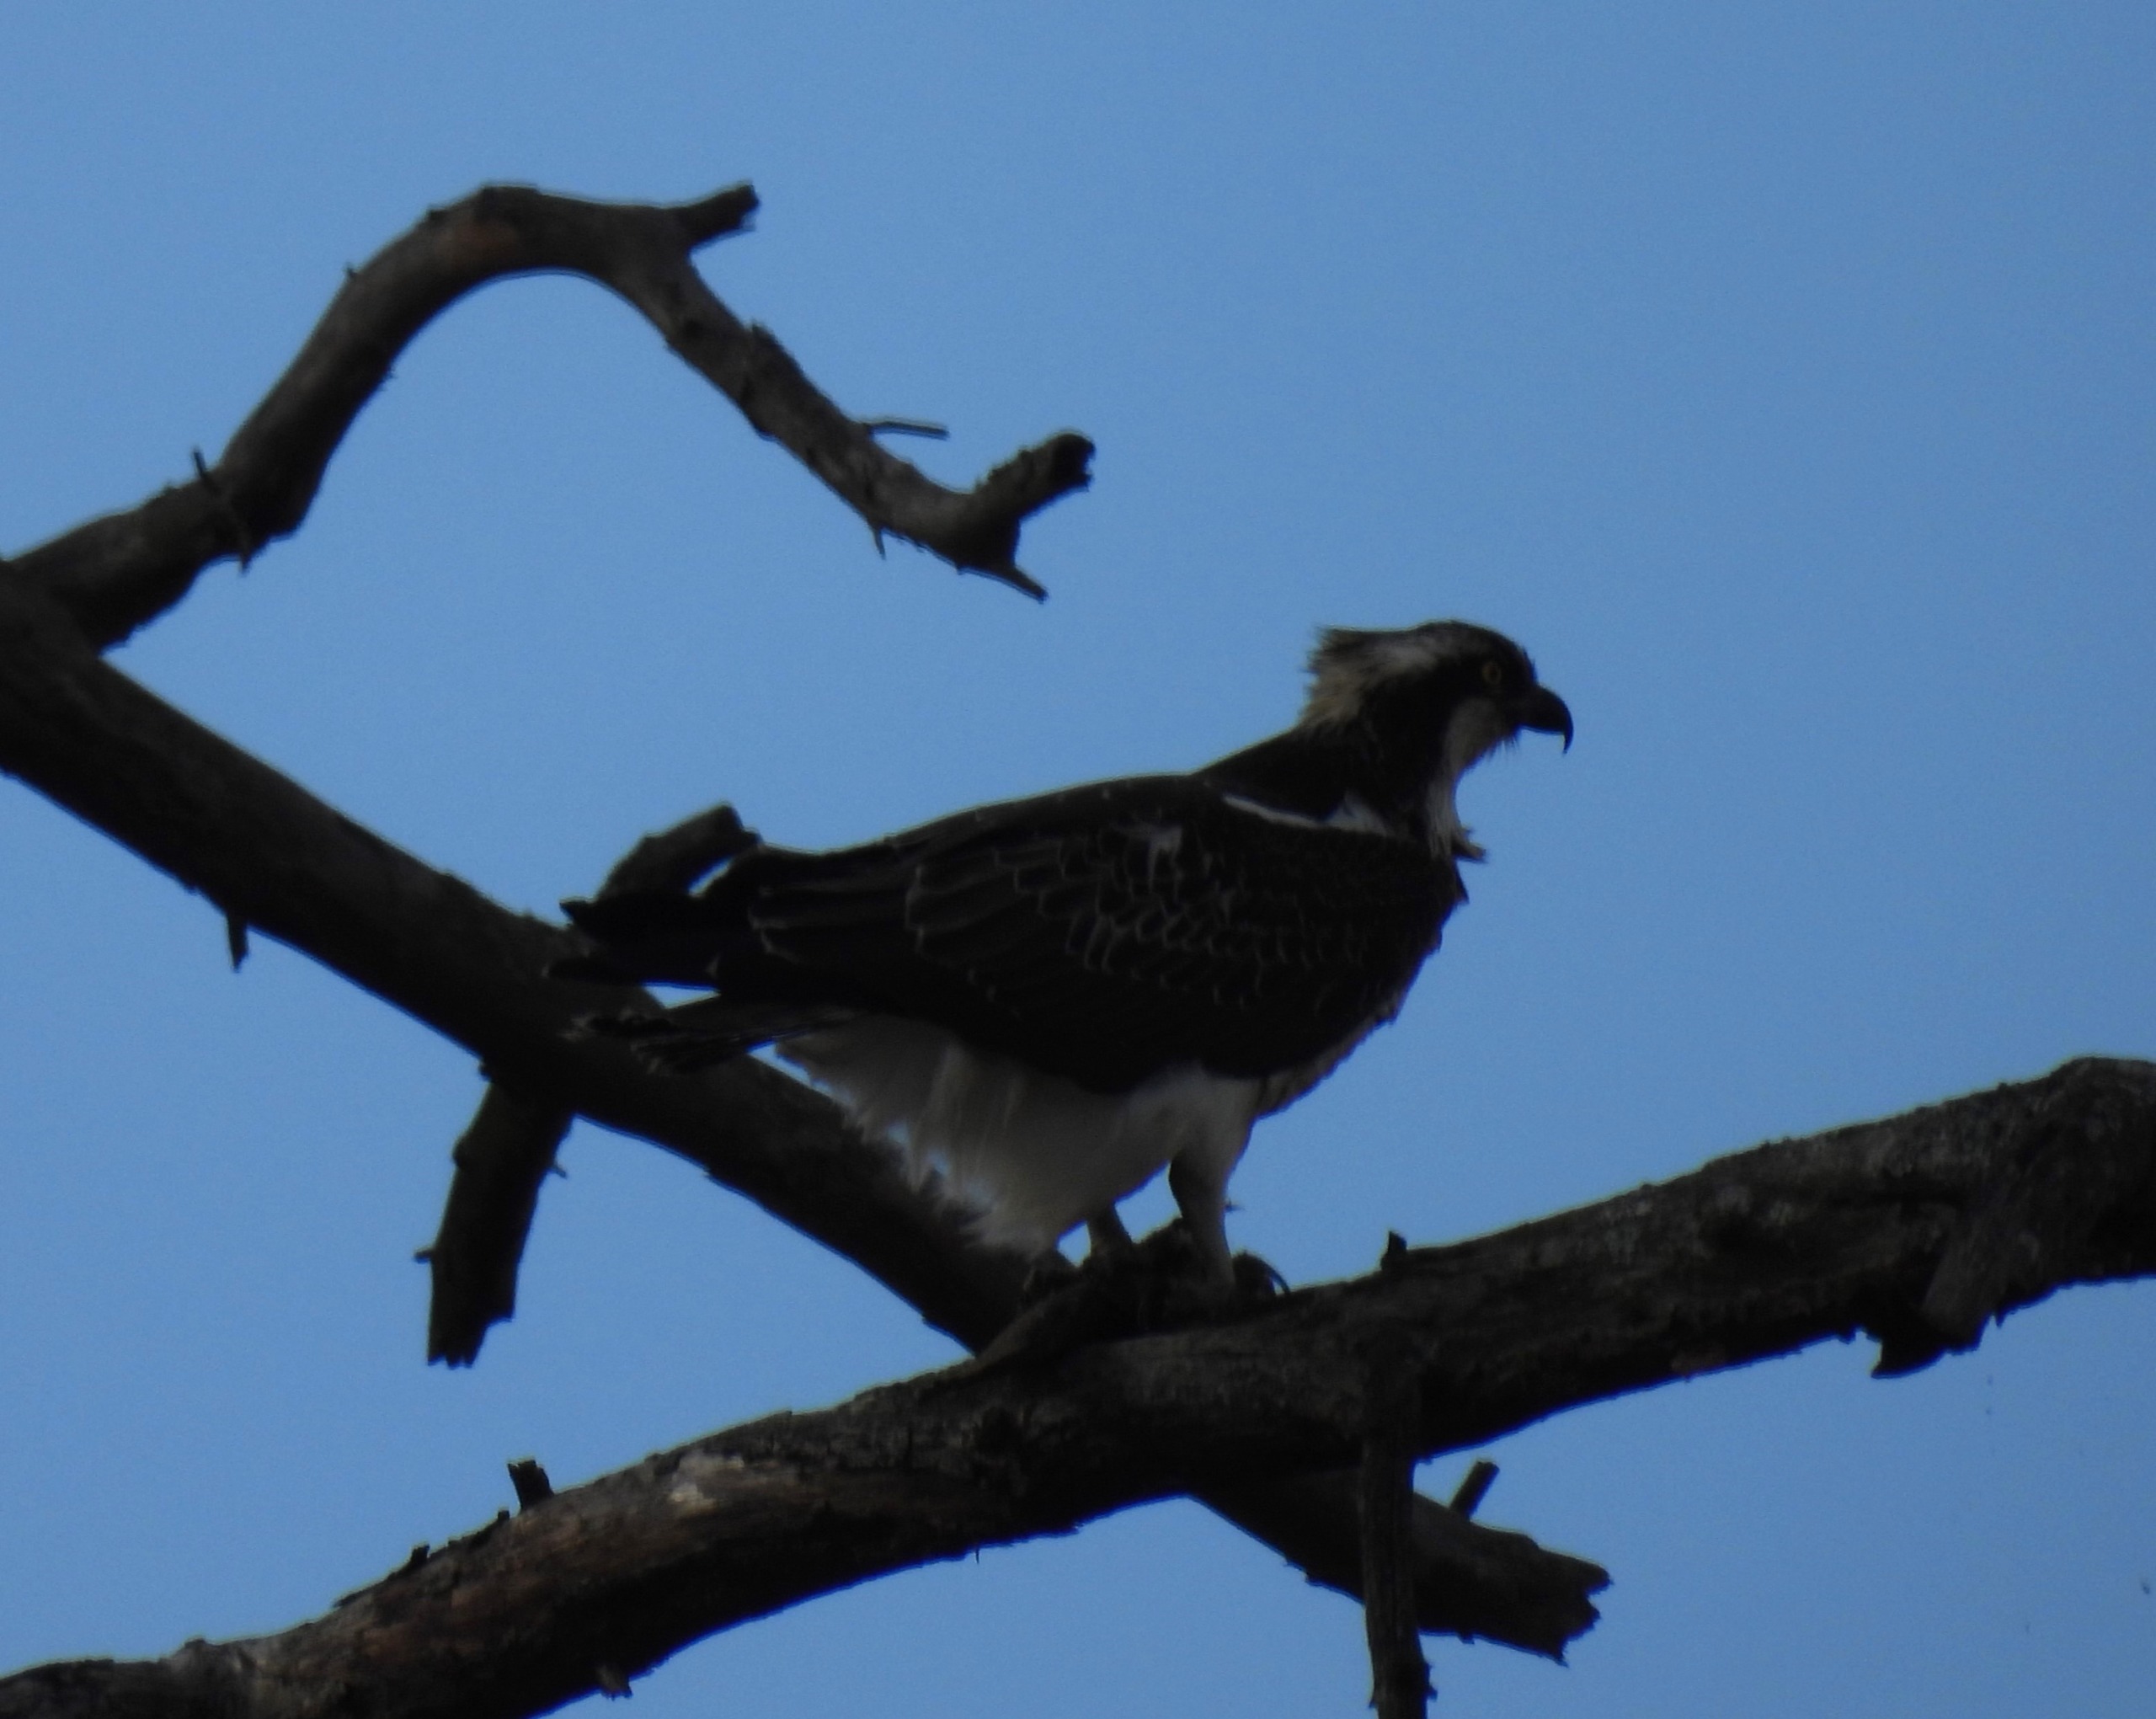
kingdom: Animalia
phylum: Chordata
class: Aves
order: Accipitriformes
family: Pandionidae
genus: Pandion
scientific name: Pandion haliaetus
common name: Fiskeørn
